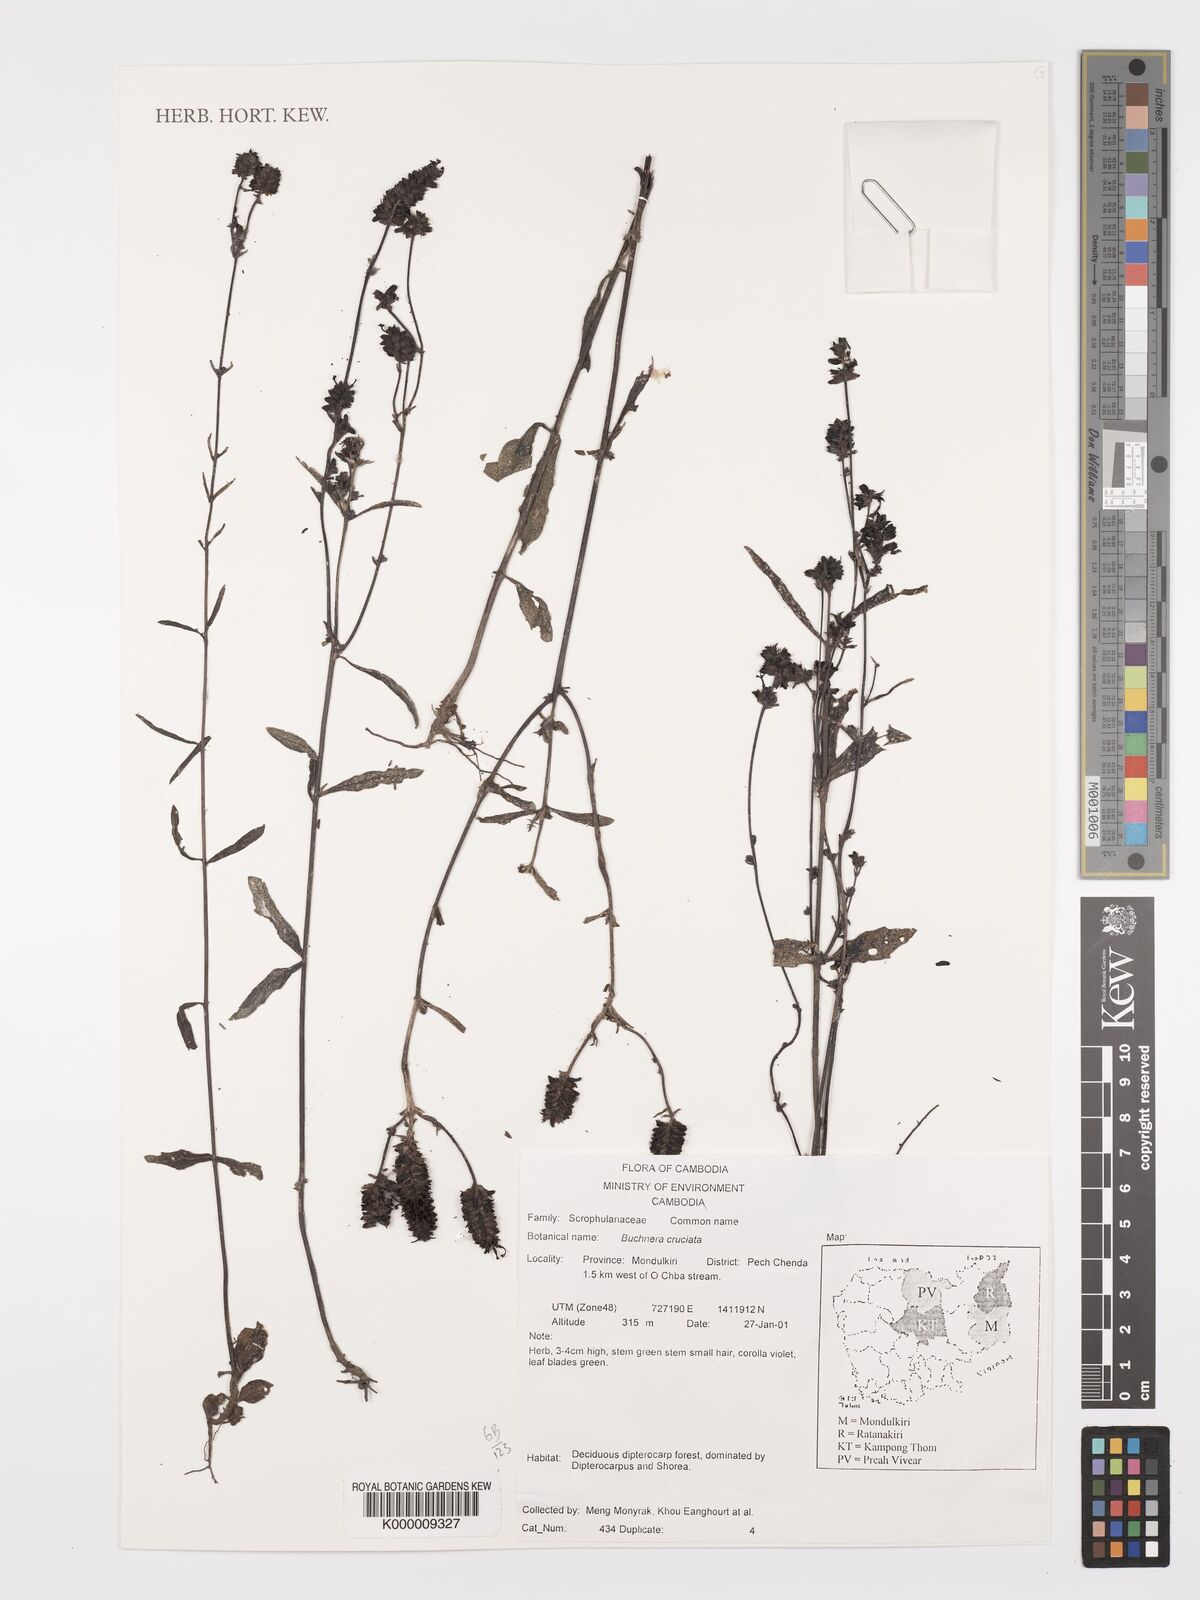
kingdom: Plantae
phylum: Tracheophyta
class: Magnoliopsida
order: Lamiales
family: Orobanchaceae
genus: Buchnera
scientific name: Buchnera
